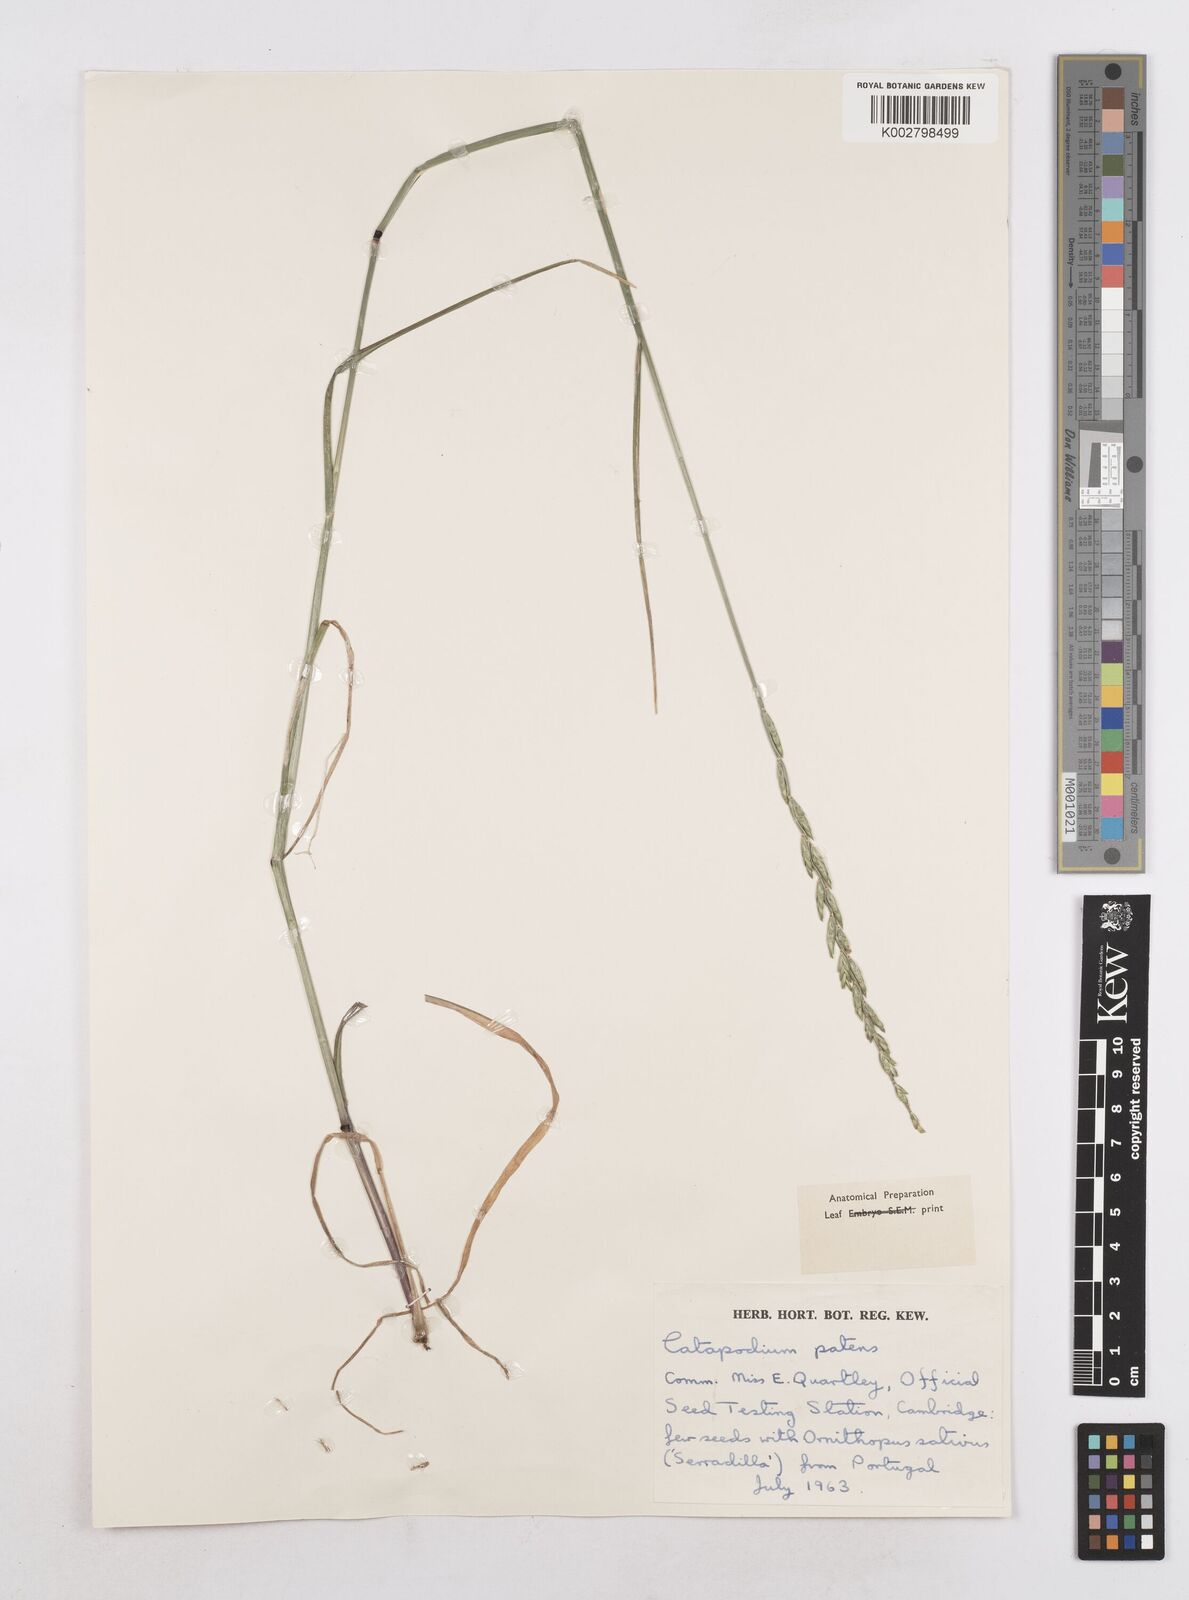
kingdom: Plantae
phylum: Tracheophyta
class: Liliopsida
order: Poales
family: Poaceae
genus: Festuca
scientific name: Festuca Micropyrum patens
